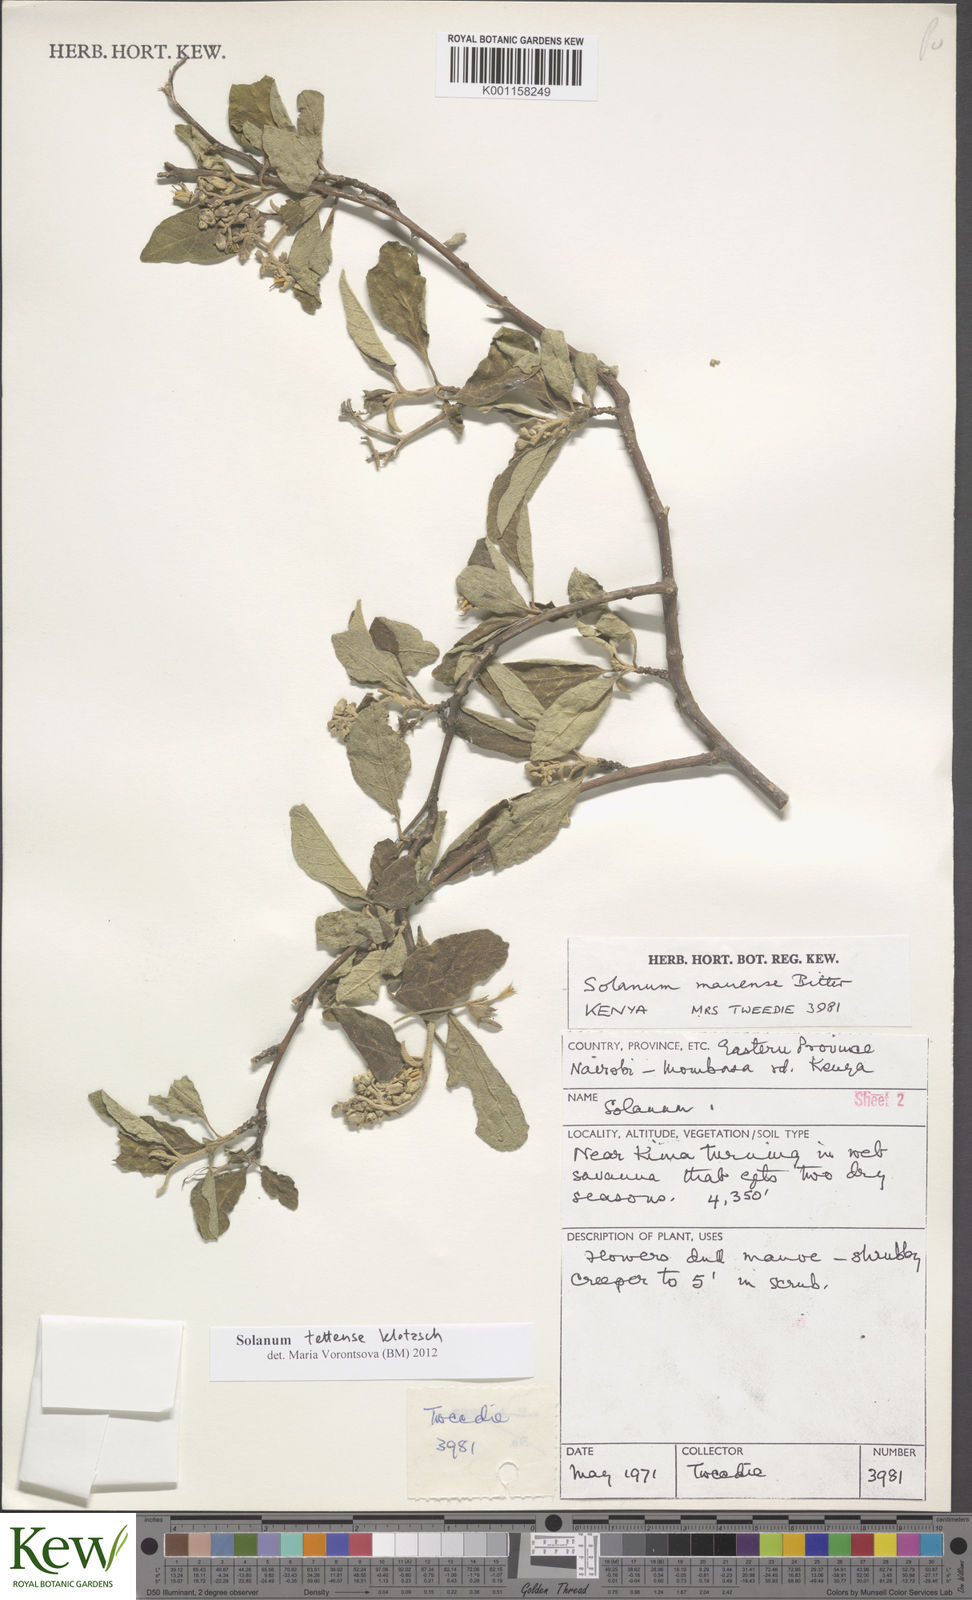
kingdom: Plantae
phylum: Tracheophyta
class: Magnoliopsida
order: Solanales
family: Solanaceae
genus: Solanum
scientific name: Solanum tettense
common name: Mozambique bitter apple
